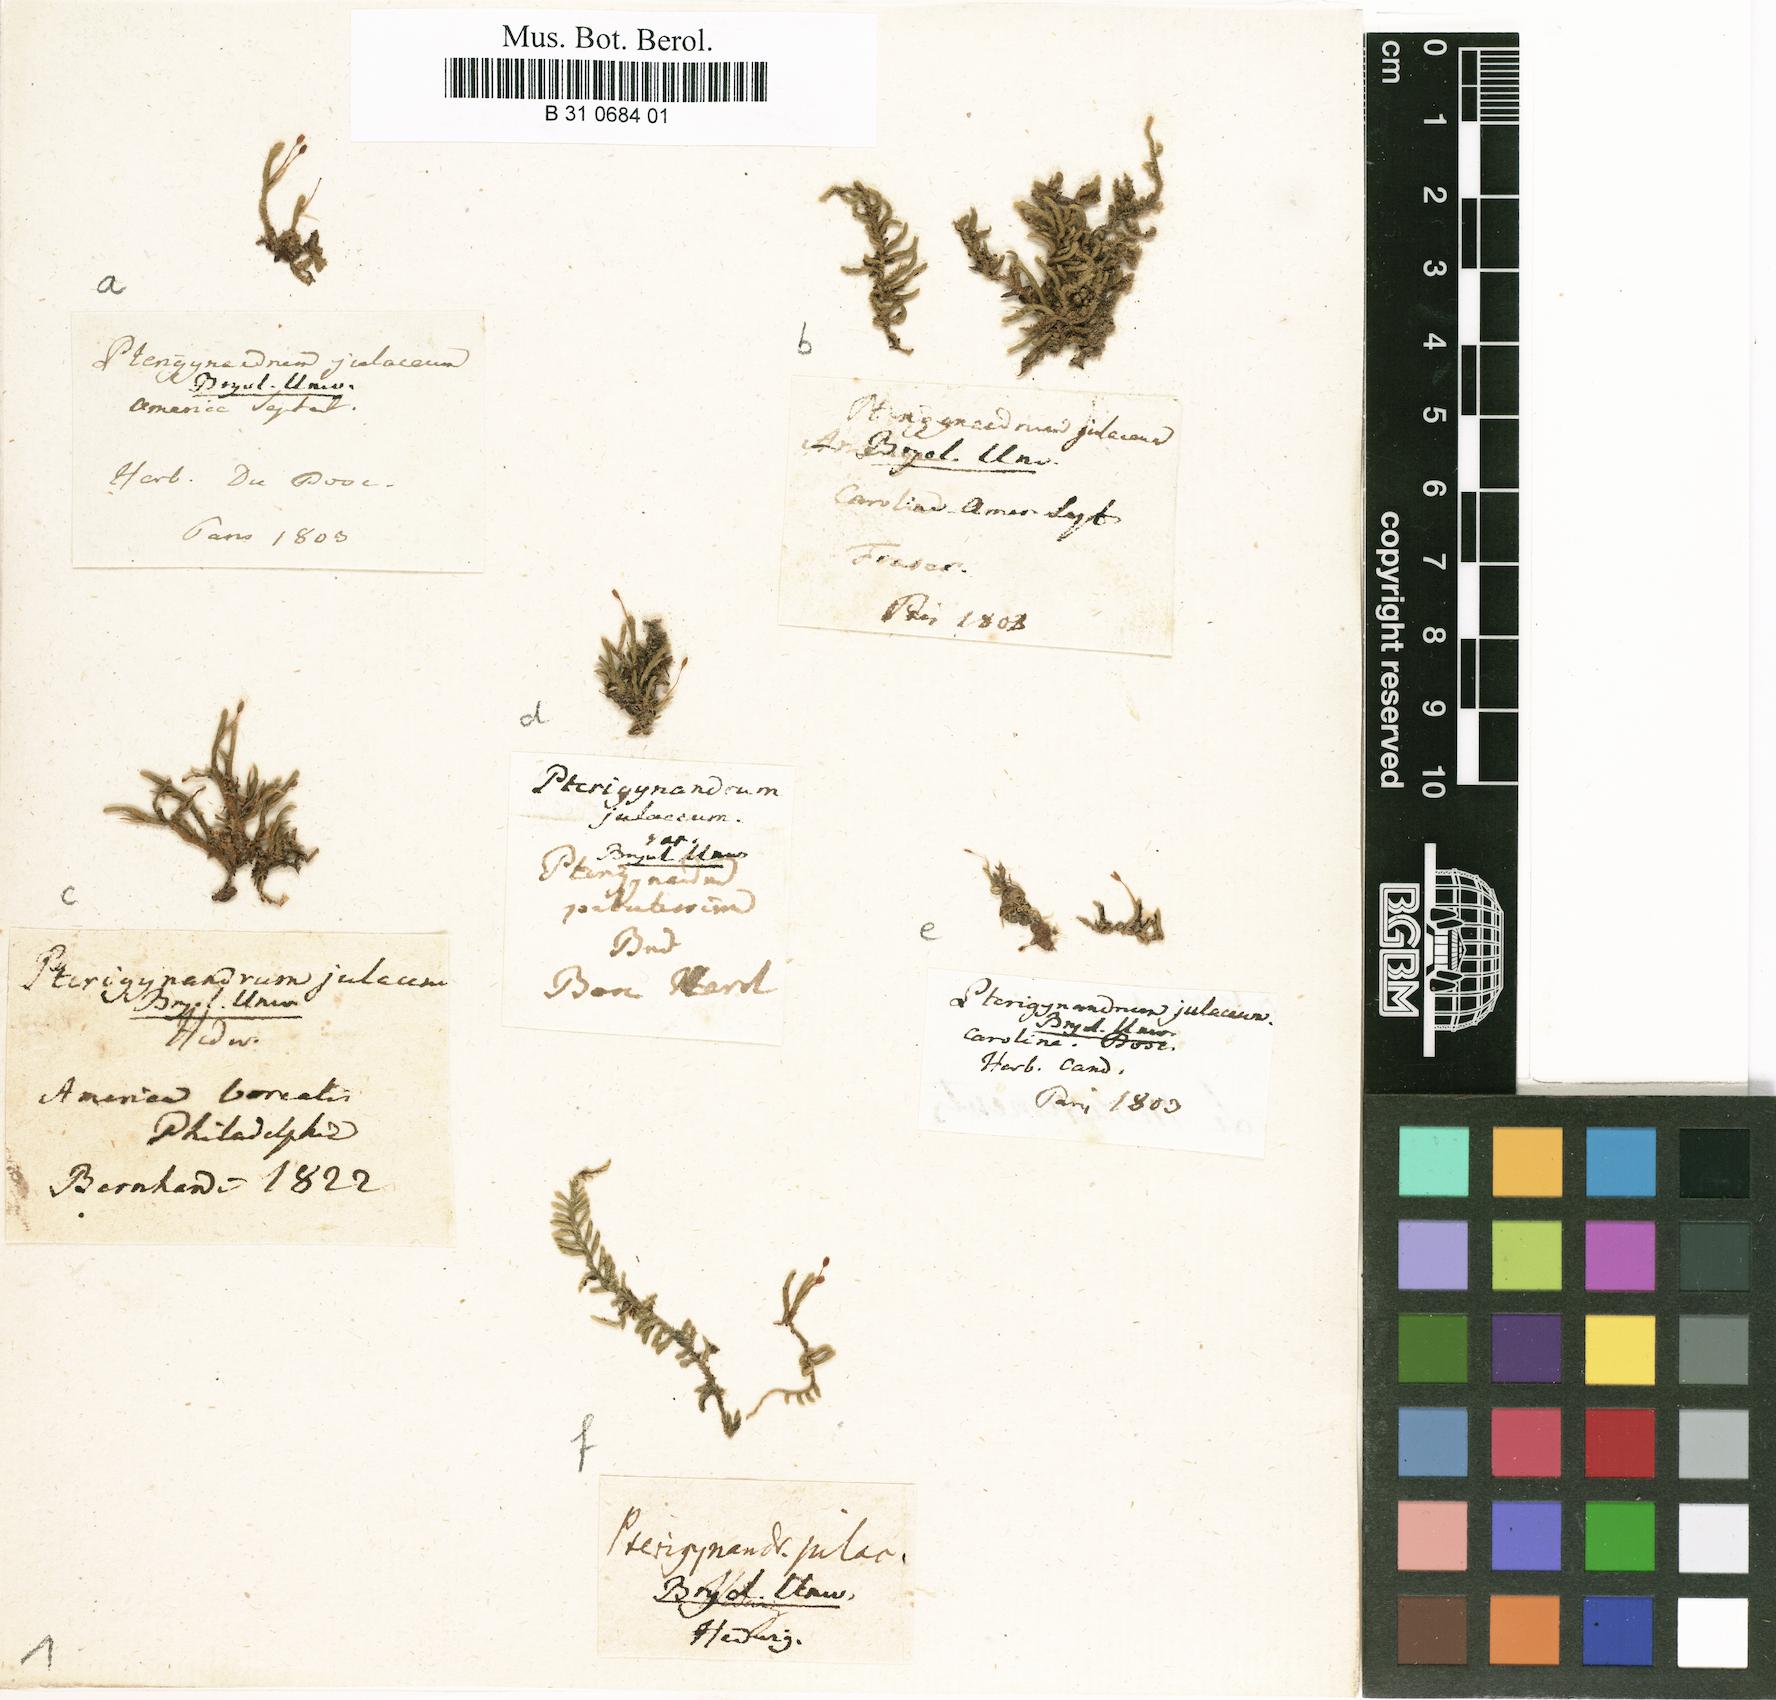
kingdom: Plantae
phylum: Bryophyta
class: Bryopsida
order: Hypnales
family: Leucodontaceae
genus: Leucodon
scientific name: Leucodon julaceus
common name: Smooth hook moss
